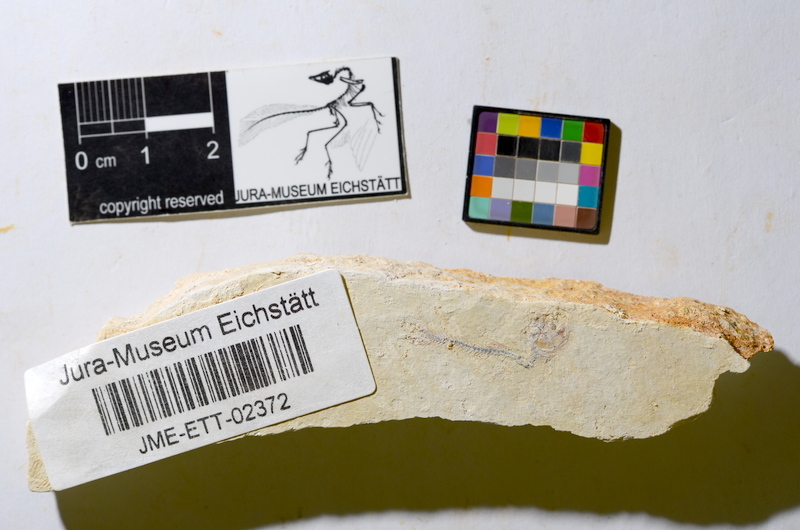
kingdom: Animalia
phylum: Chordata
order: Salmoniformes
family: Orthogonikleithridae
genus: Orthogonikleithrus
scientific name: Orthogonikleithrus hoelli
